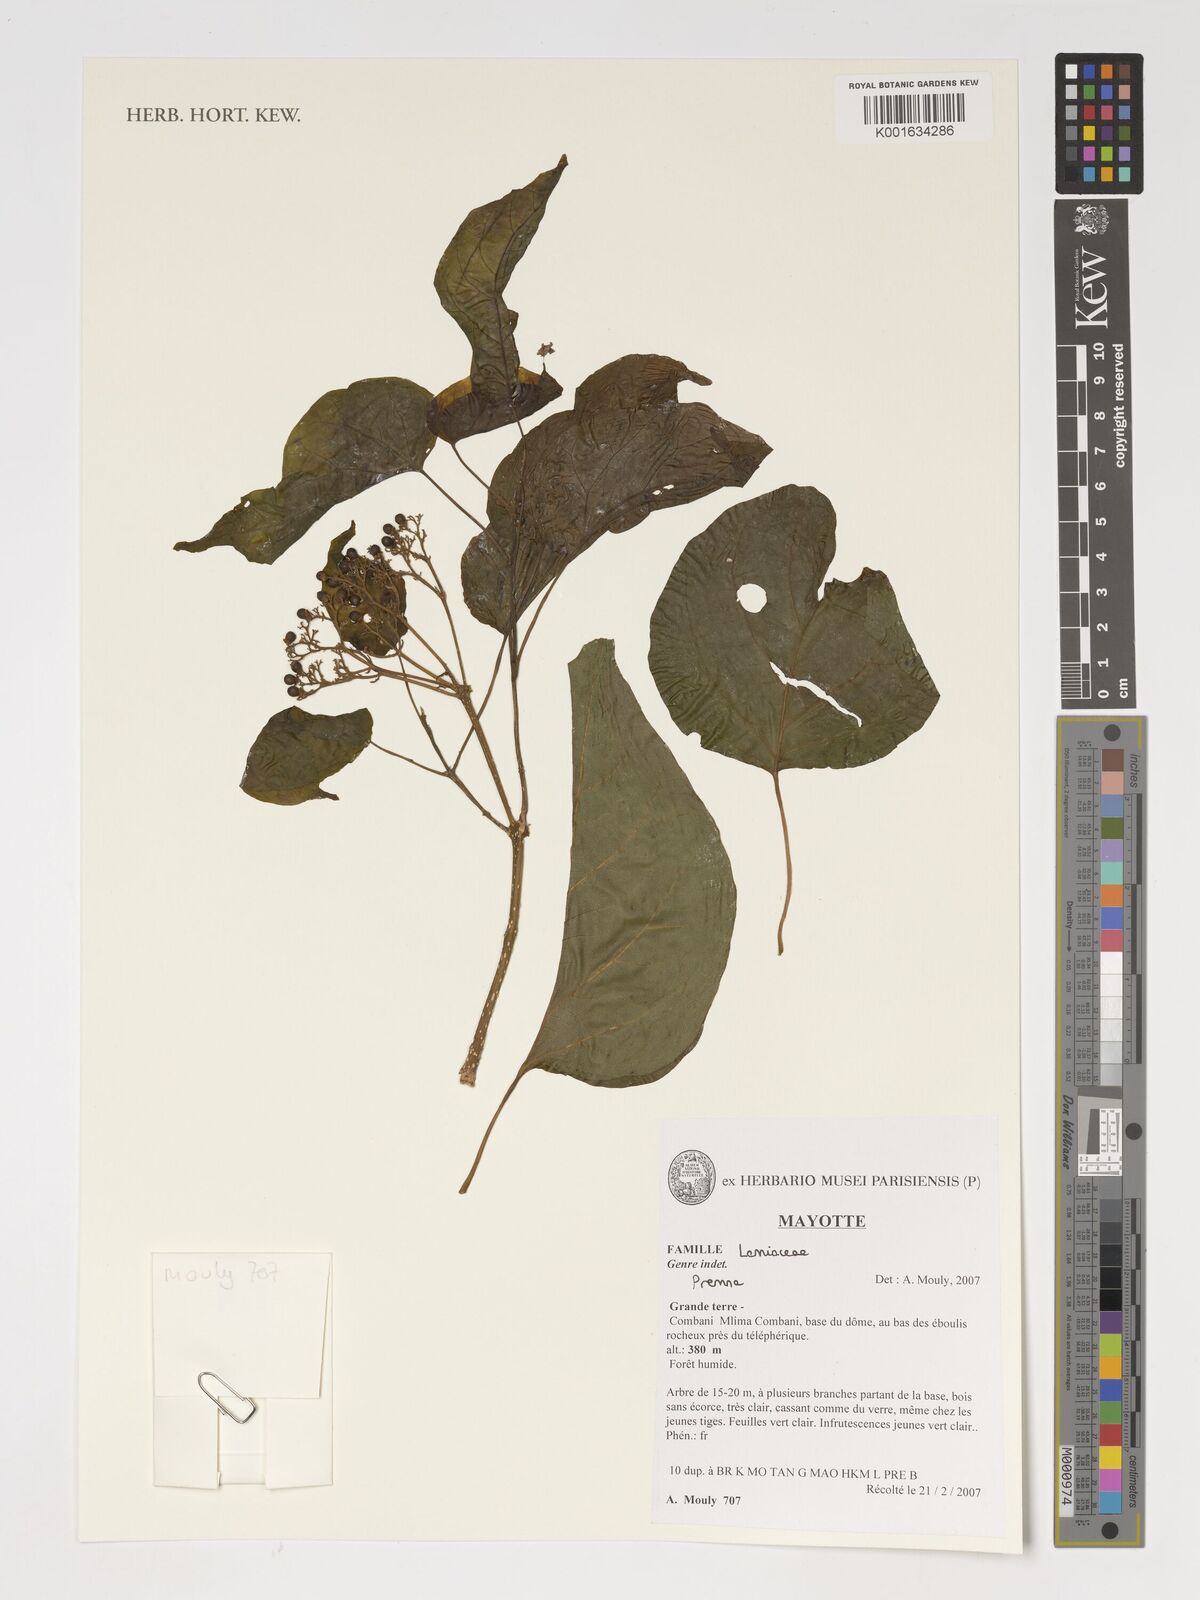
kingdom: Plantae
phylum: Tracheophyta
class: Magnoliopsida
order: Lamiales
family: Lamiaceae
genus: Premna
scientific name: Premna
